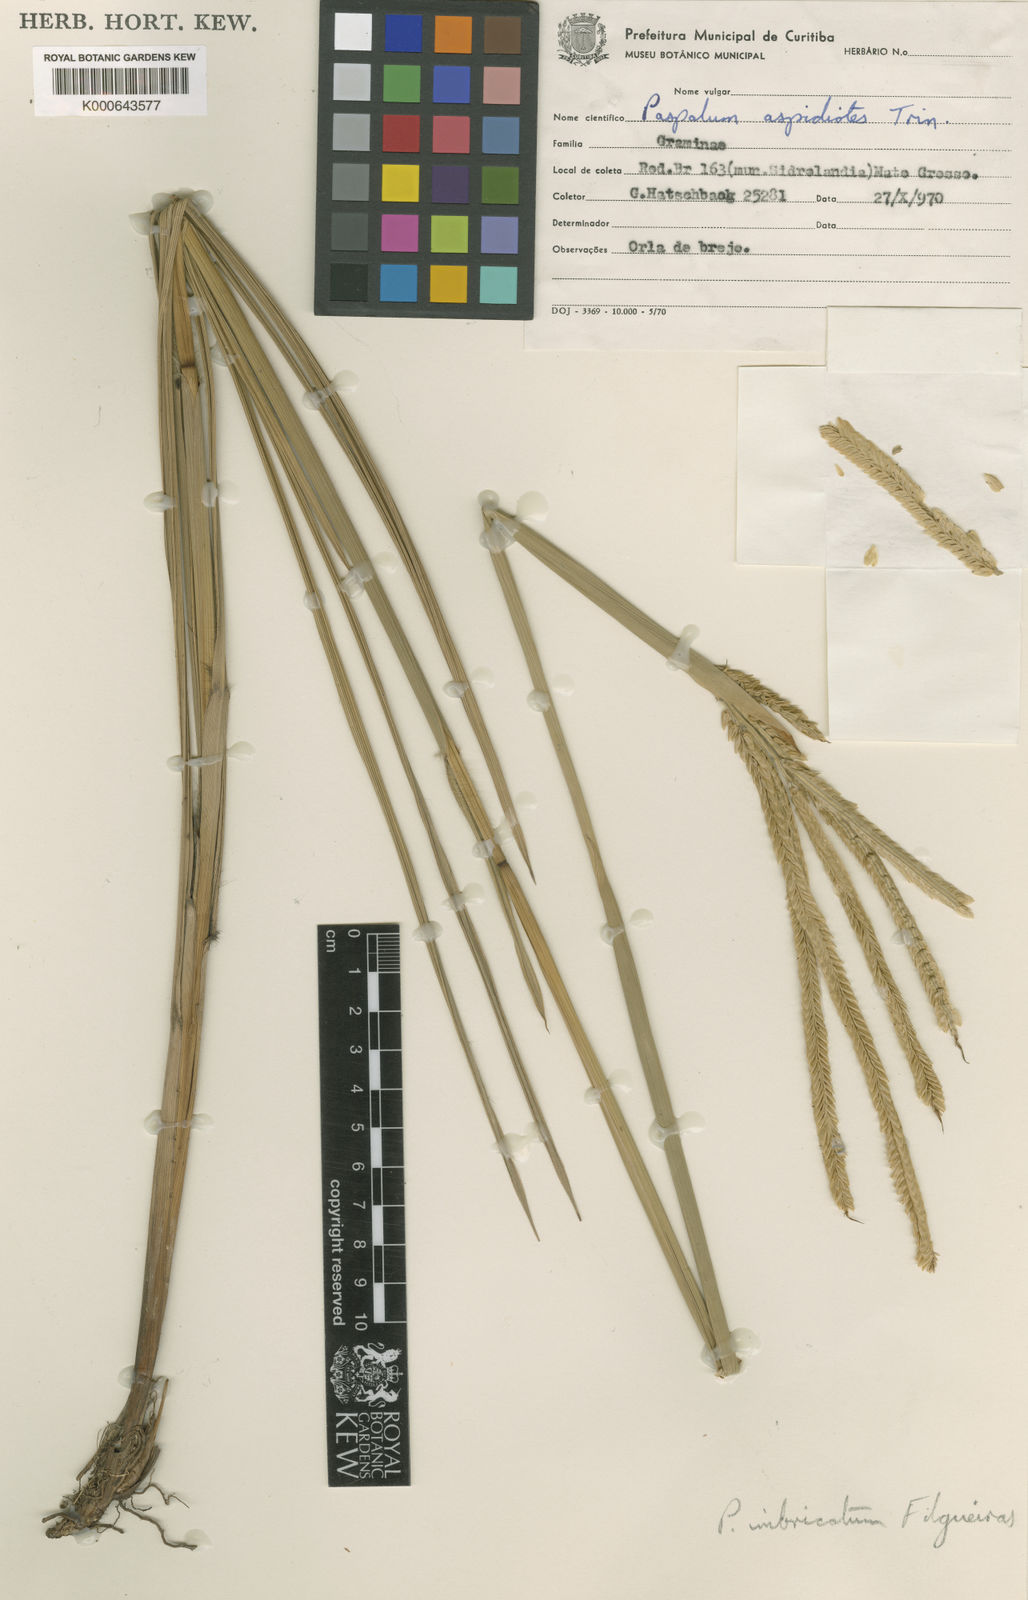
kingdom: Plantae
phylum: Tracheophyta
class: Liliopsida
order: Poales
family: Poaceae
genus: Paspalum
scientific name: Paspalum imbricatum
